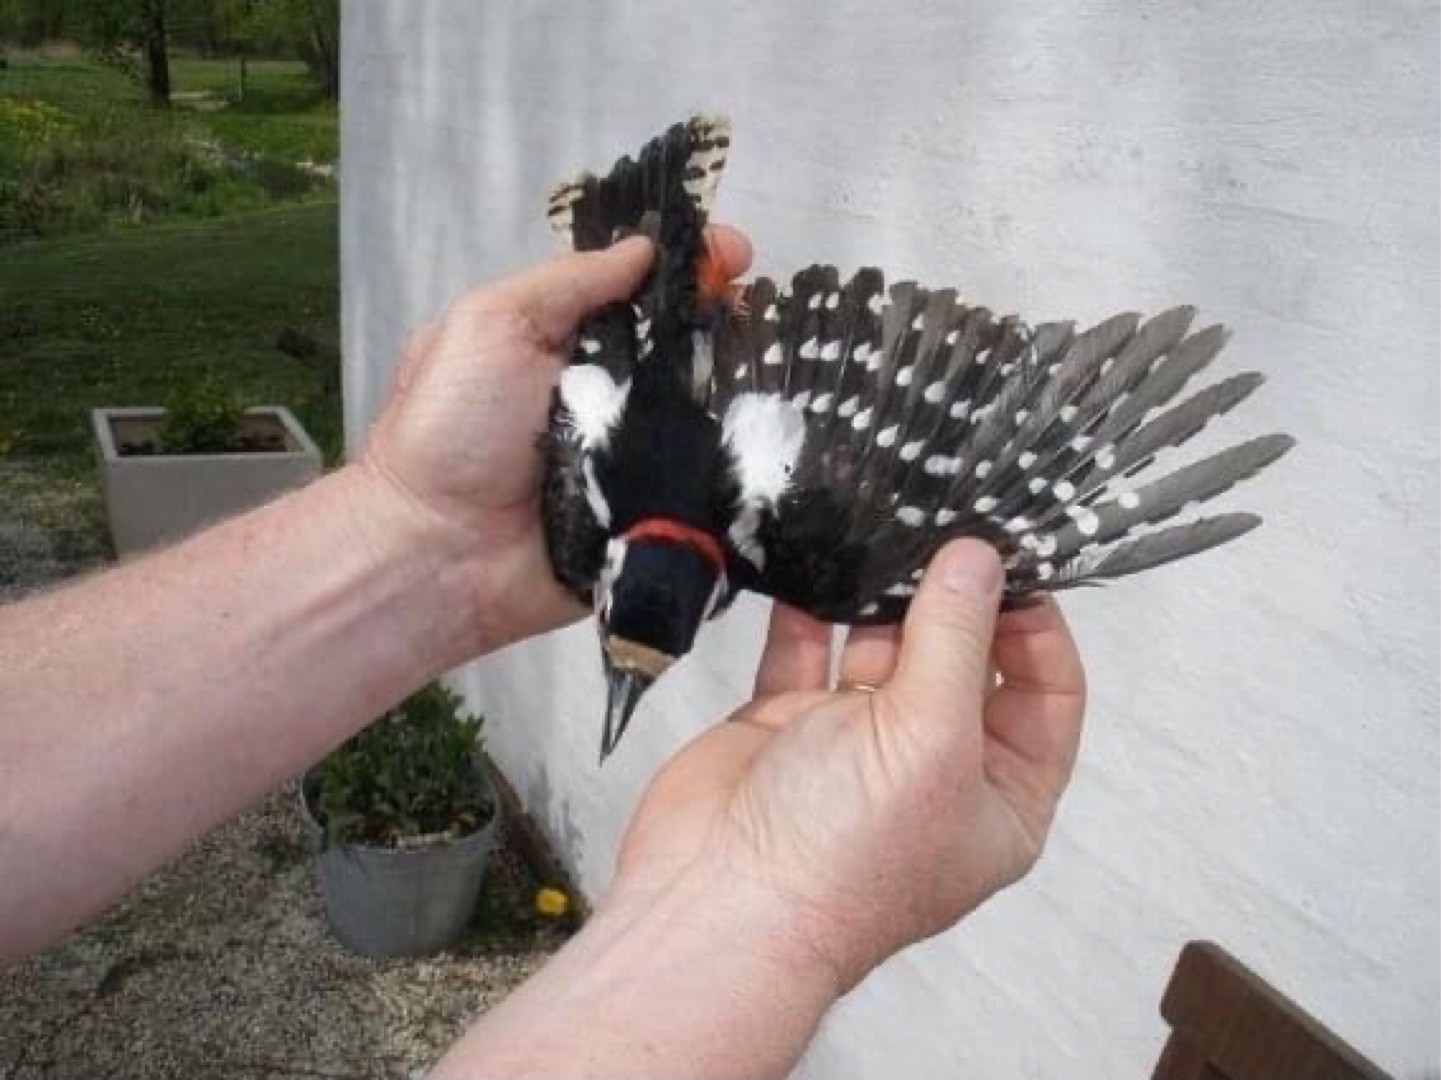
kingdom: Animalia
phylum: Chordata
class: Aves
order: Piciformes
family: Picidae
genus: Dendrocopos
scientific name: Dendrocopos major
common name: Stor flagspætte
